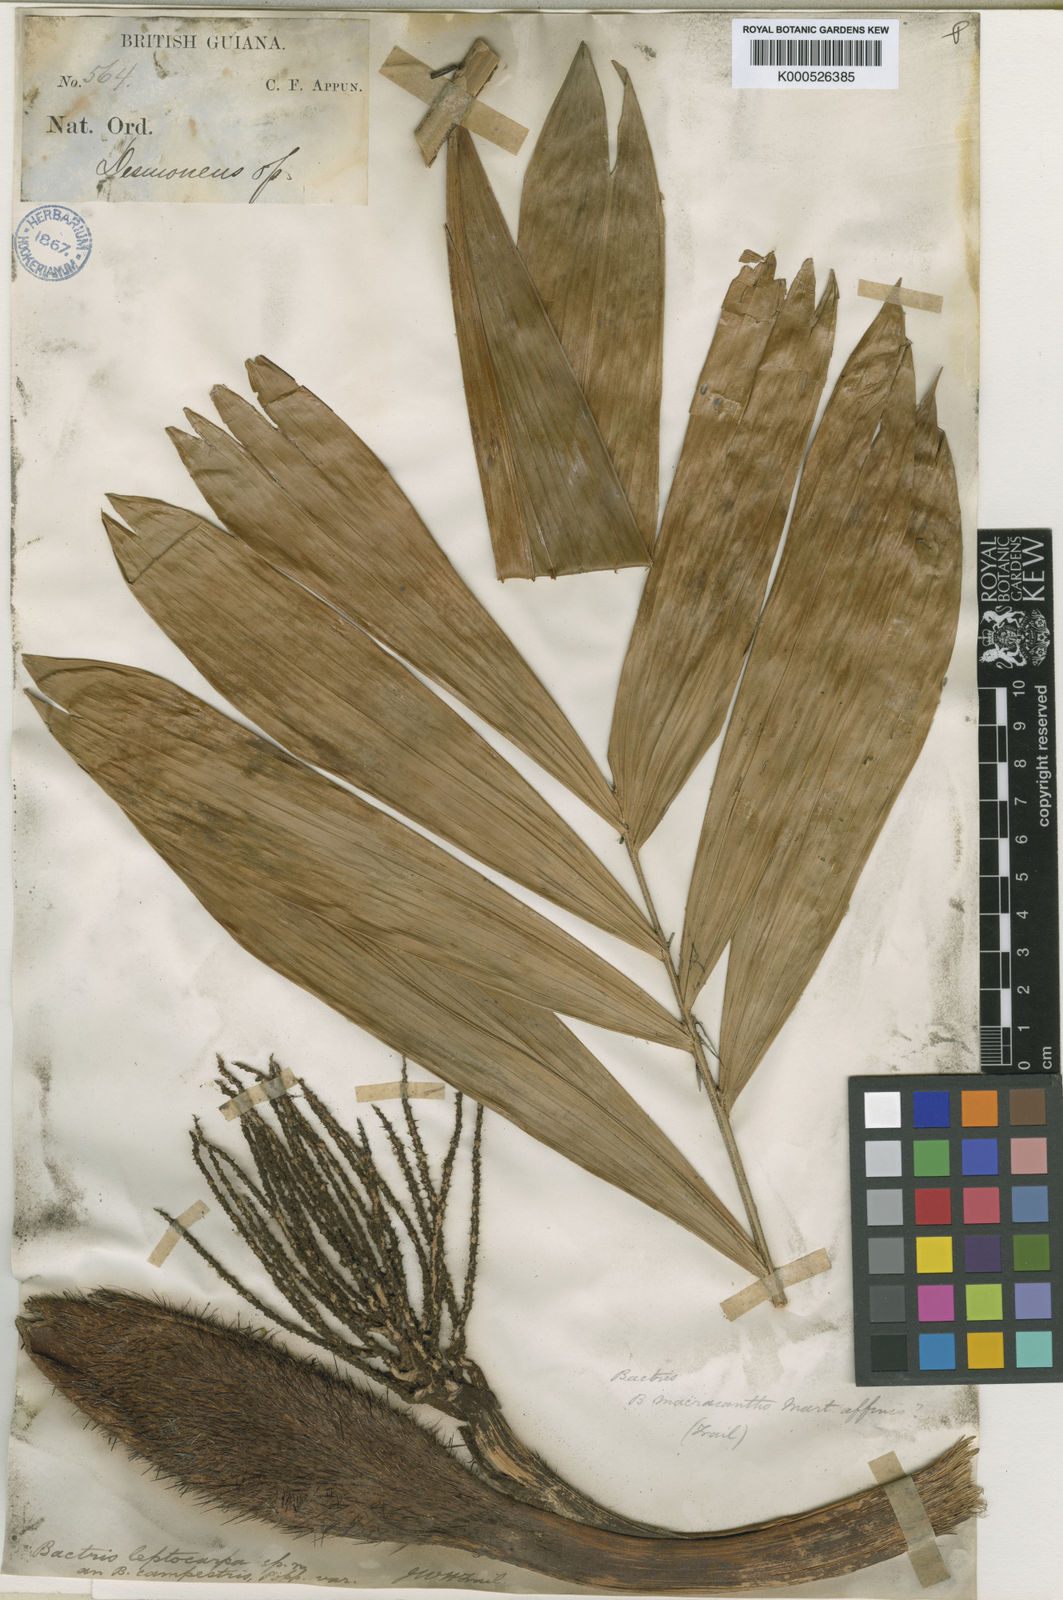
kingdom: Plantae
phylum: Tracheophyta
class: Liliopsida
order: Arecales
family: Arecaceae
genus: Bactris
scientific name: Bactris campestris
